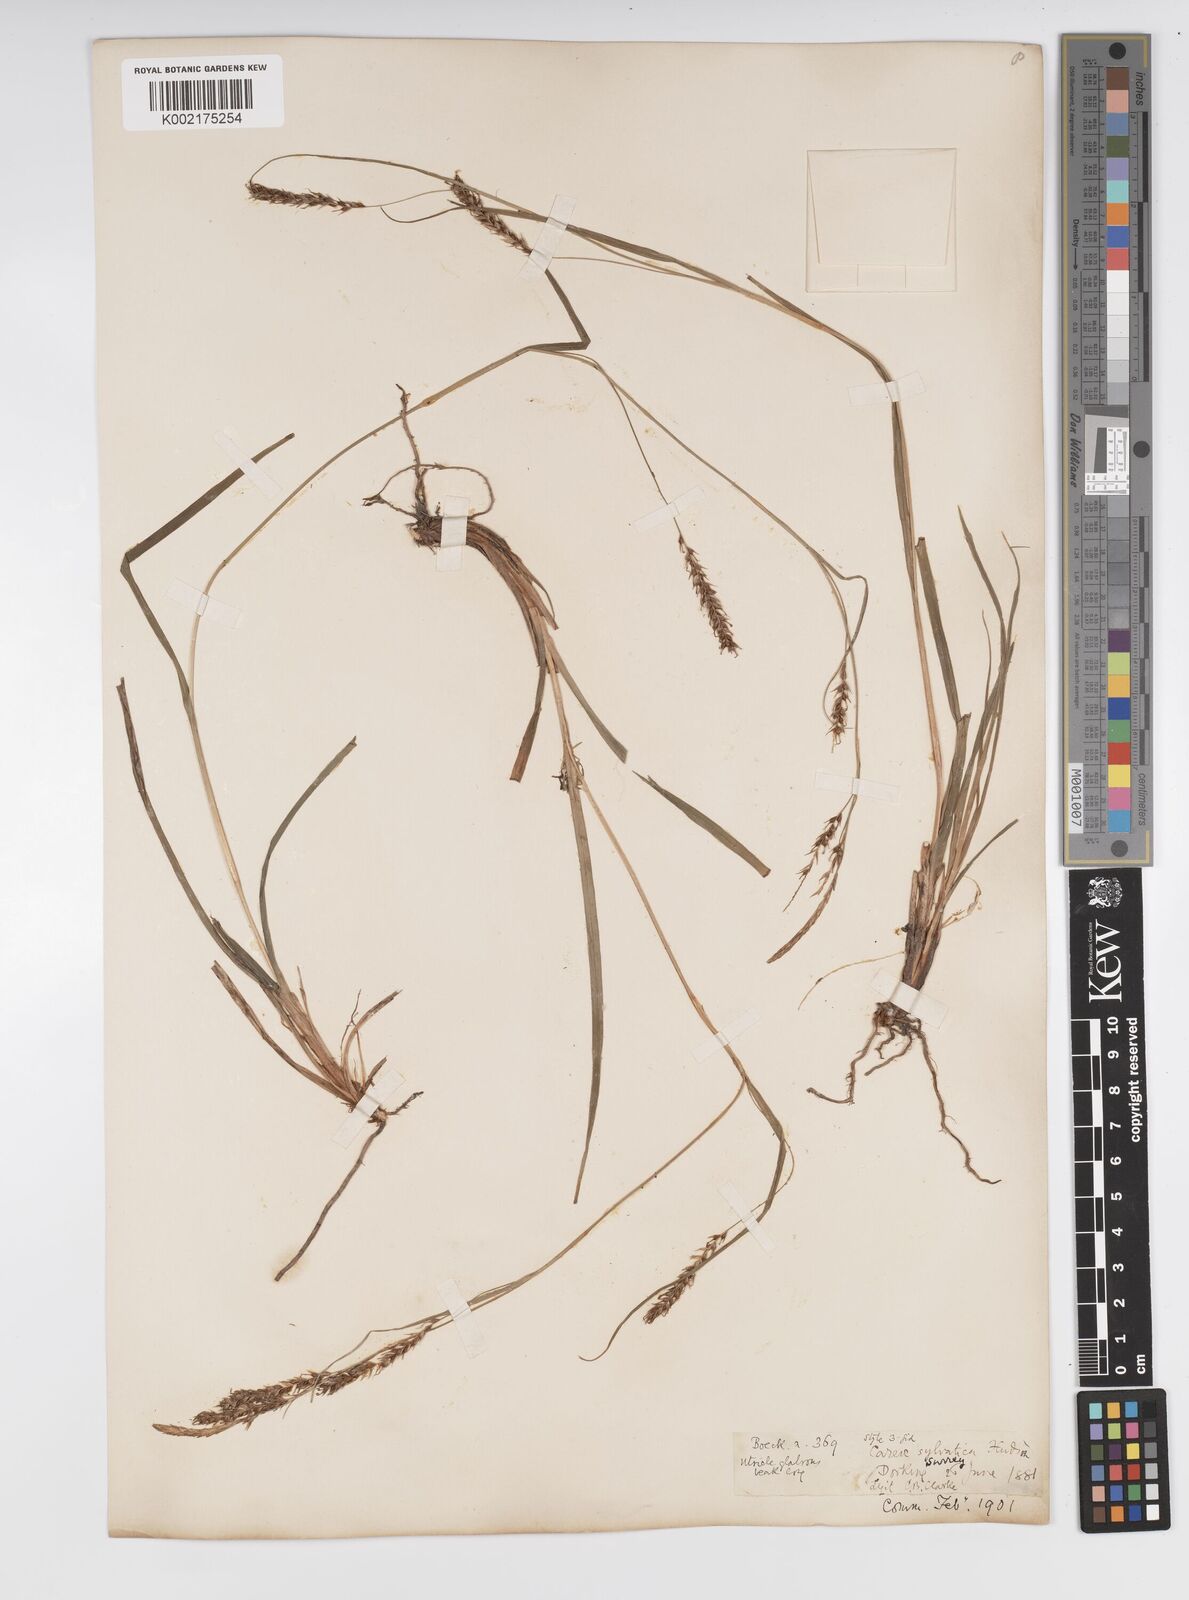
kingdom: Plantae
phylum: Tracheophyta
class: Liliopsida
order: Poales
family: Cyperaceae
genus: Carex
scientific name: Carex sylvatica
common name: Wood-sedge
